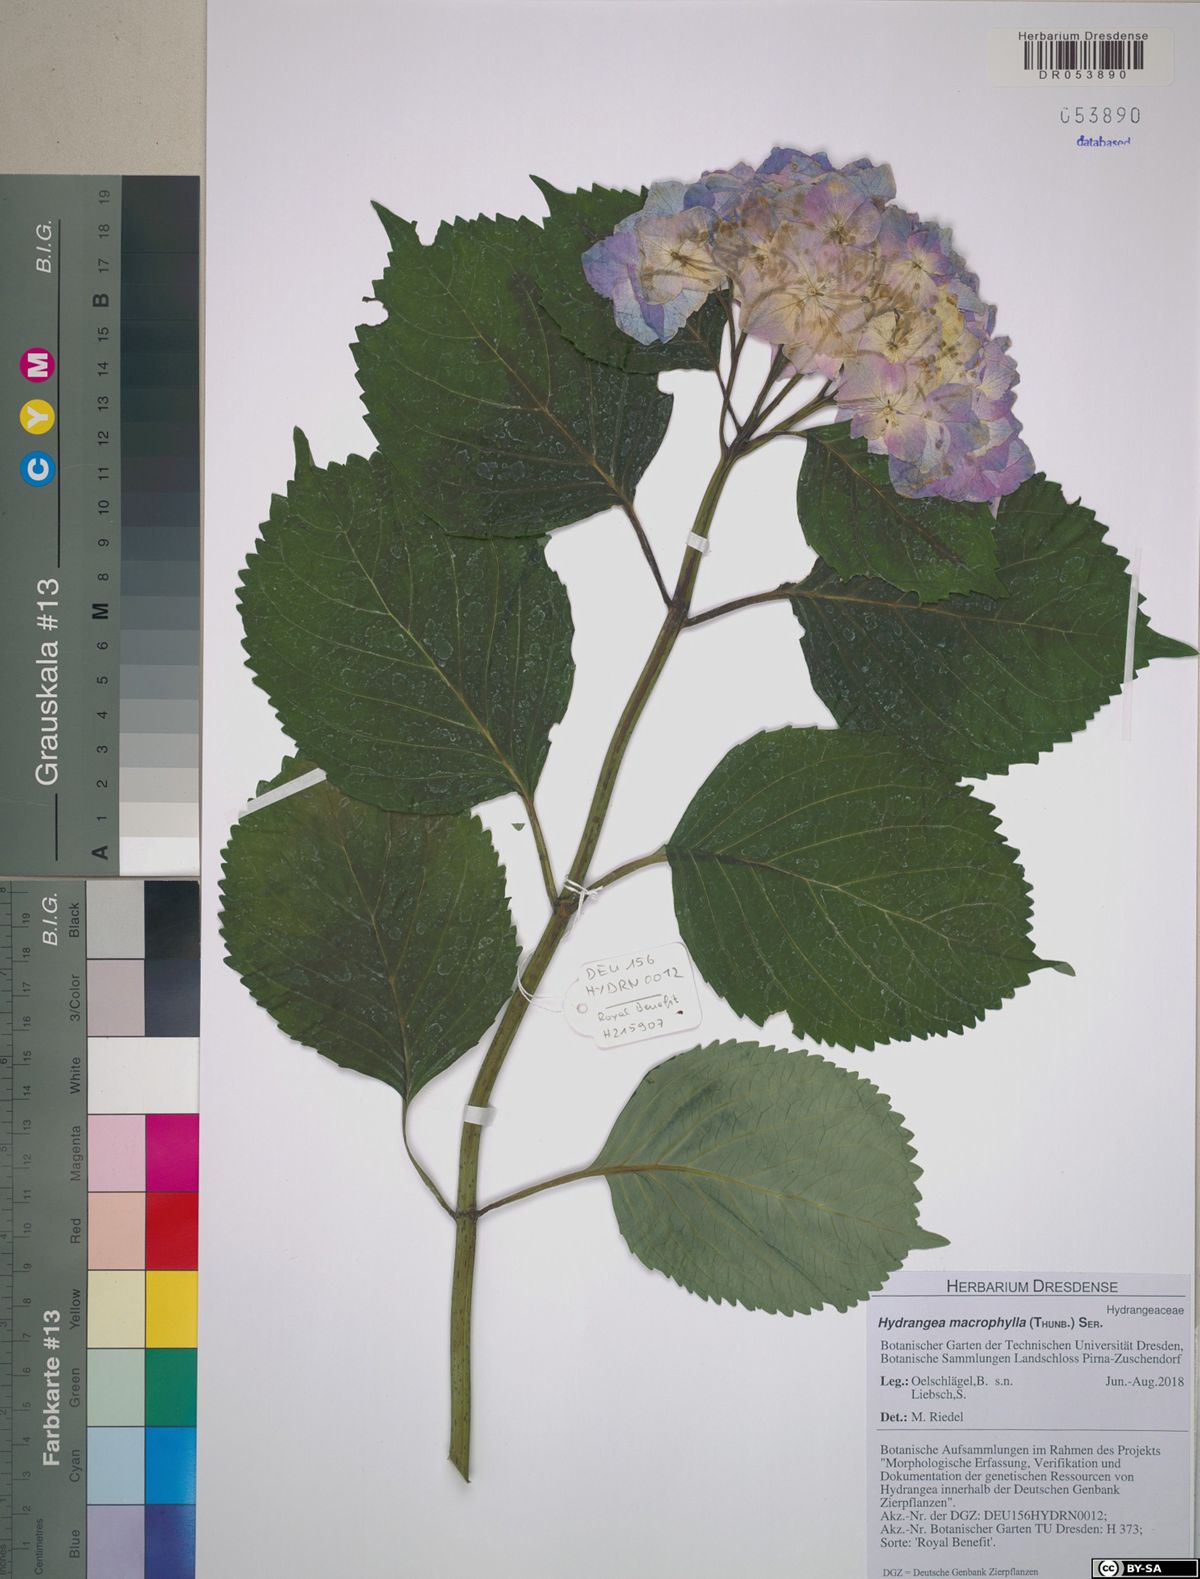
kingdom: Plantae
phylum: Tracheophyta
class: Magnoliopsida
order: Cornales
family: Hydrangeaceae
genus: Hydrangea
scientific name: Hydrangea macrophylla
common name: Hydrangea
